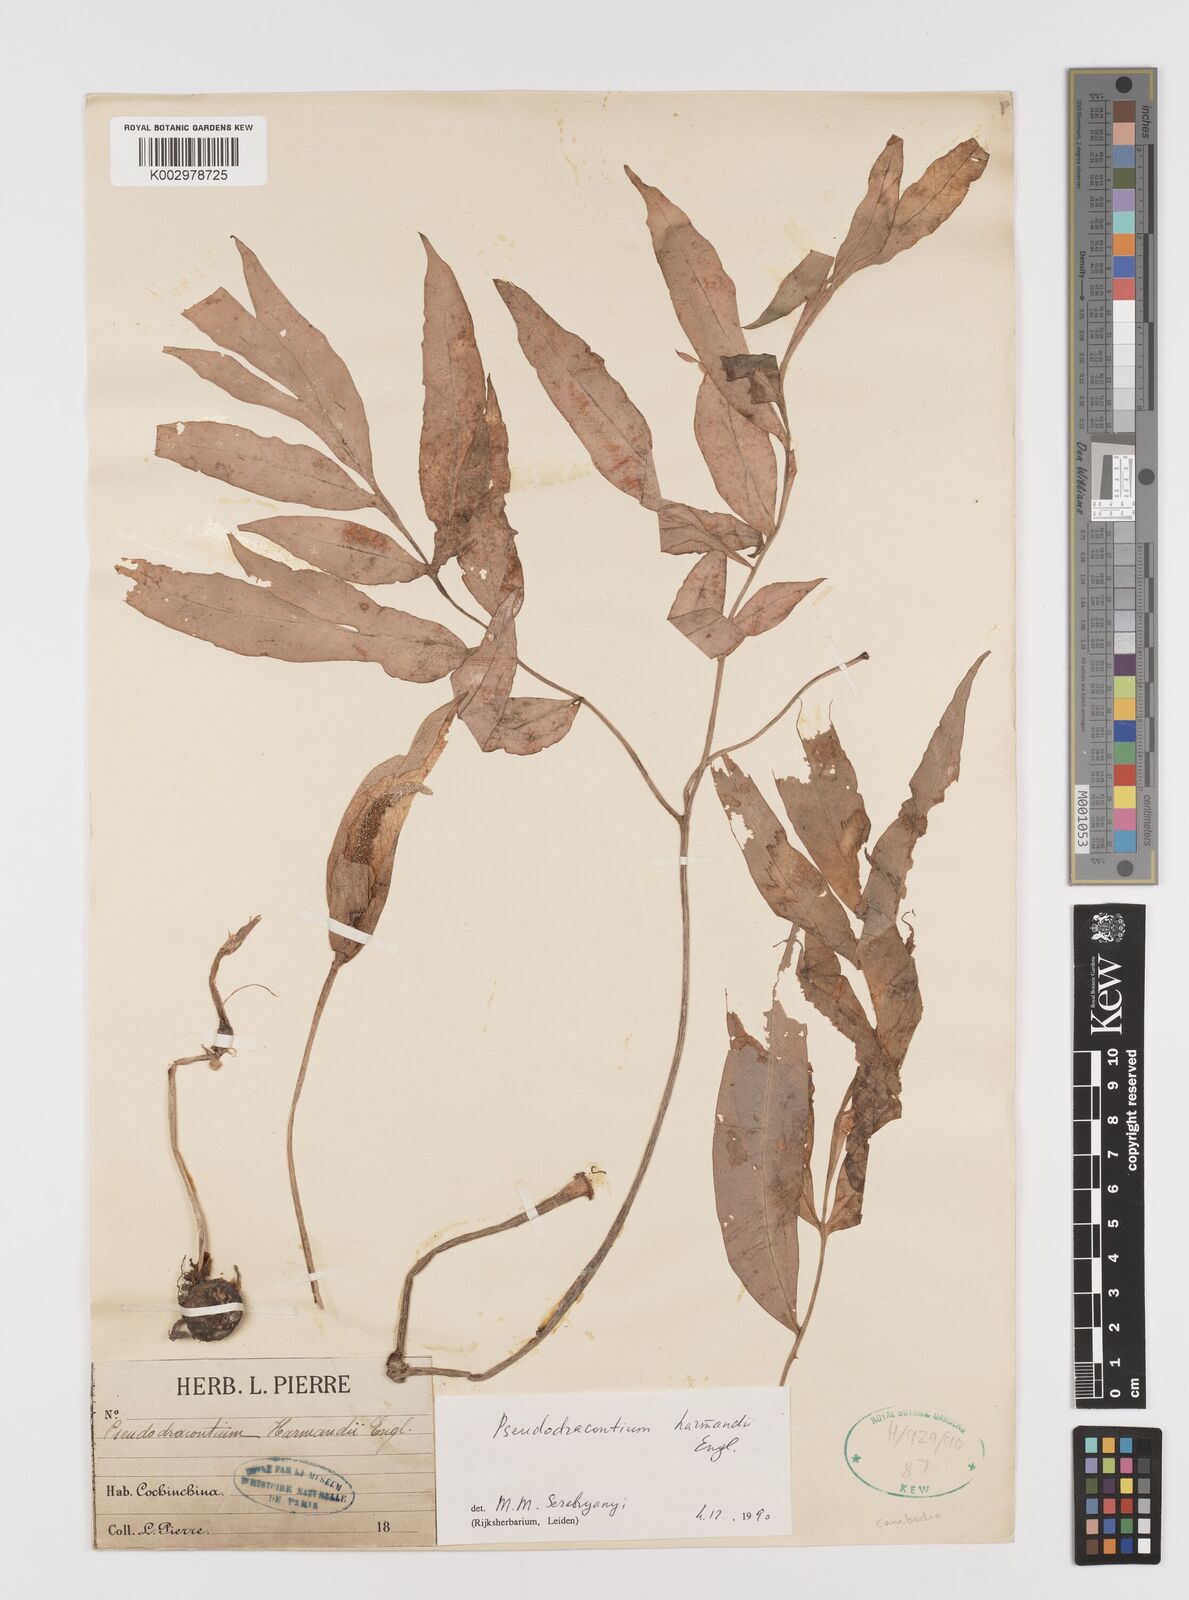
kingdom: Plantae
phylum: Tracheophyta
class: Liliopsida
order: Alismatales
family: Araceae
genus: Amorphophallus
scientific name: Amorphophallus harmandii
